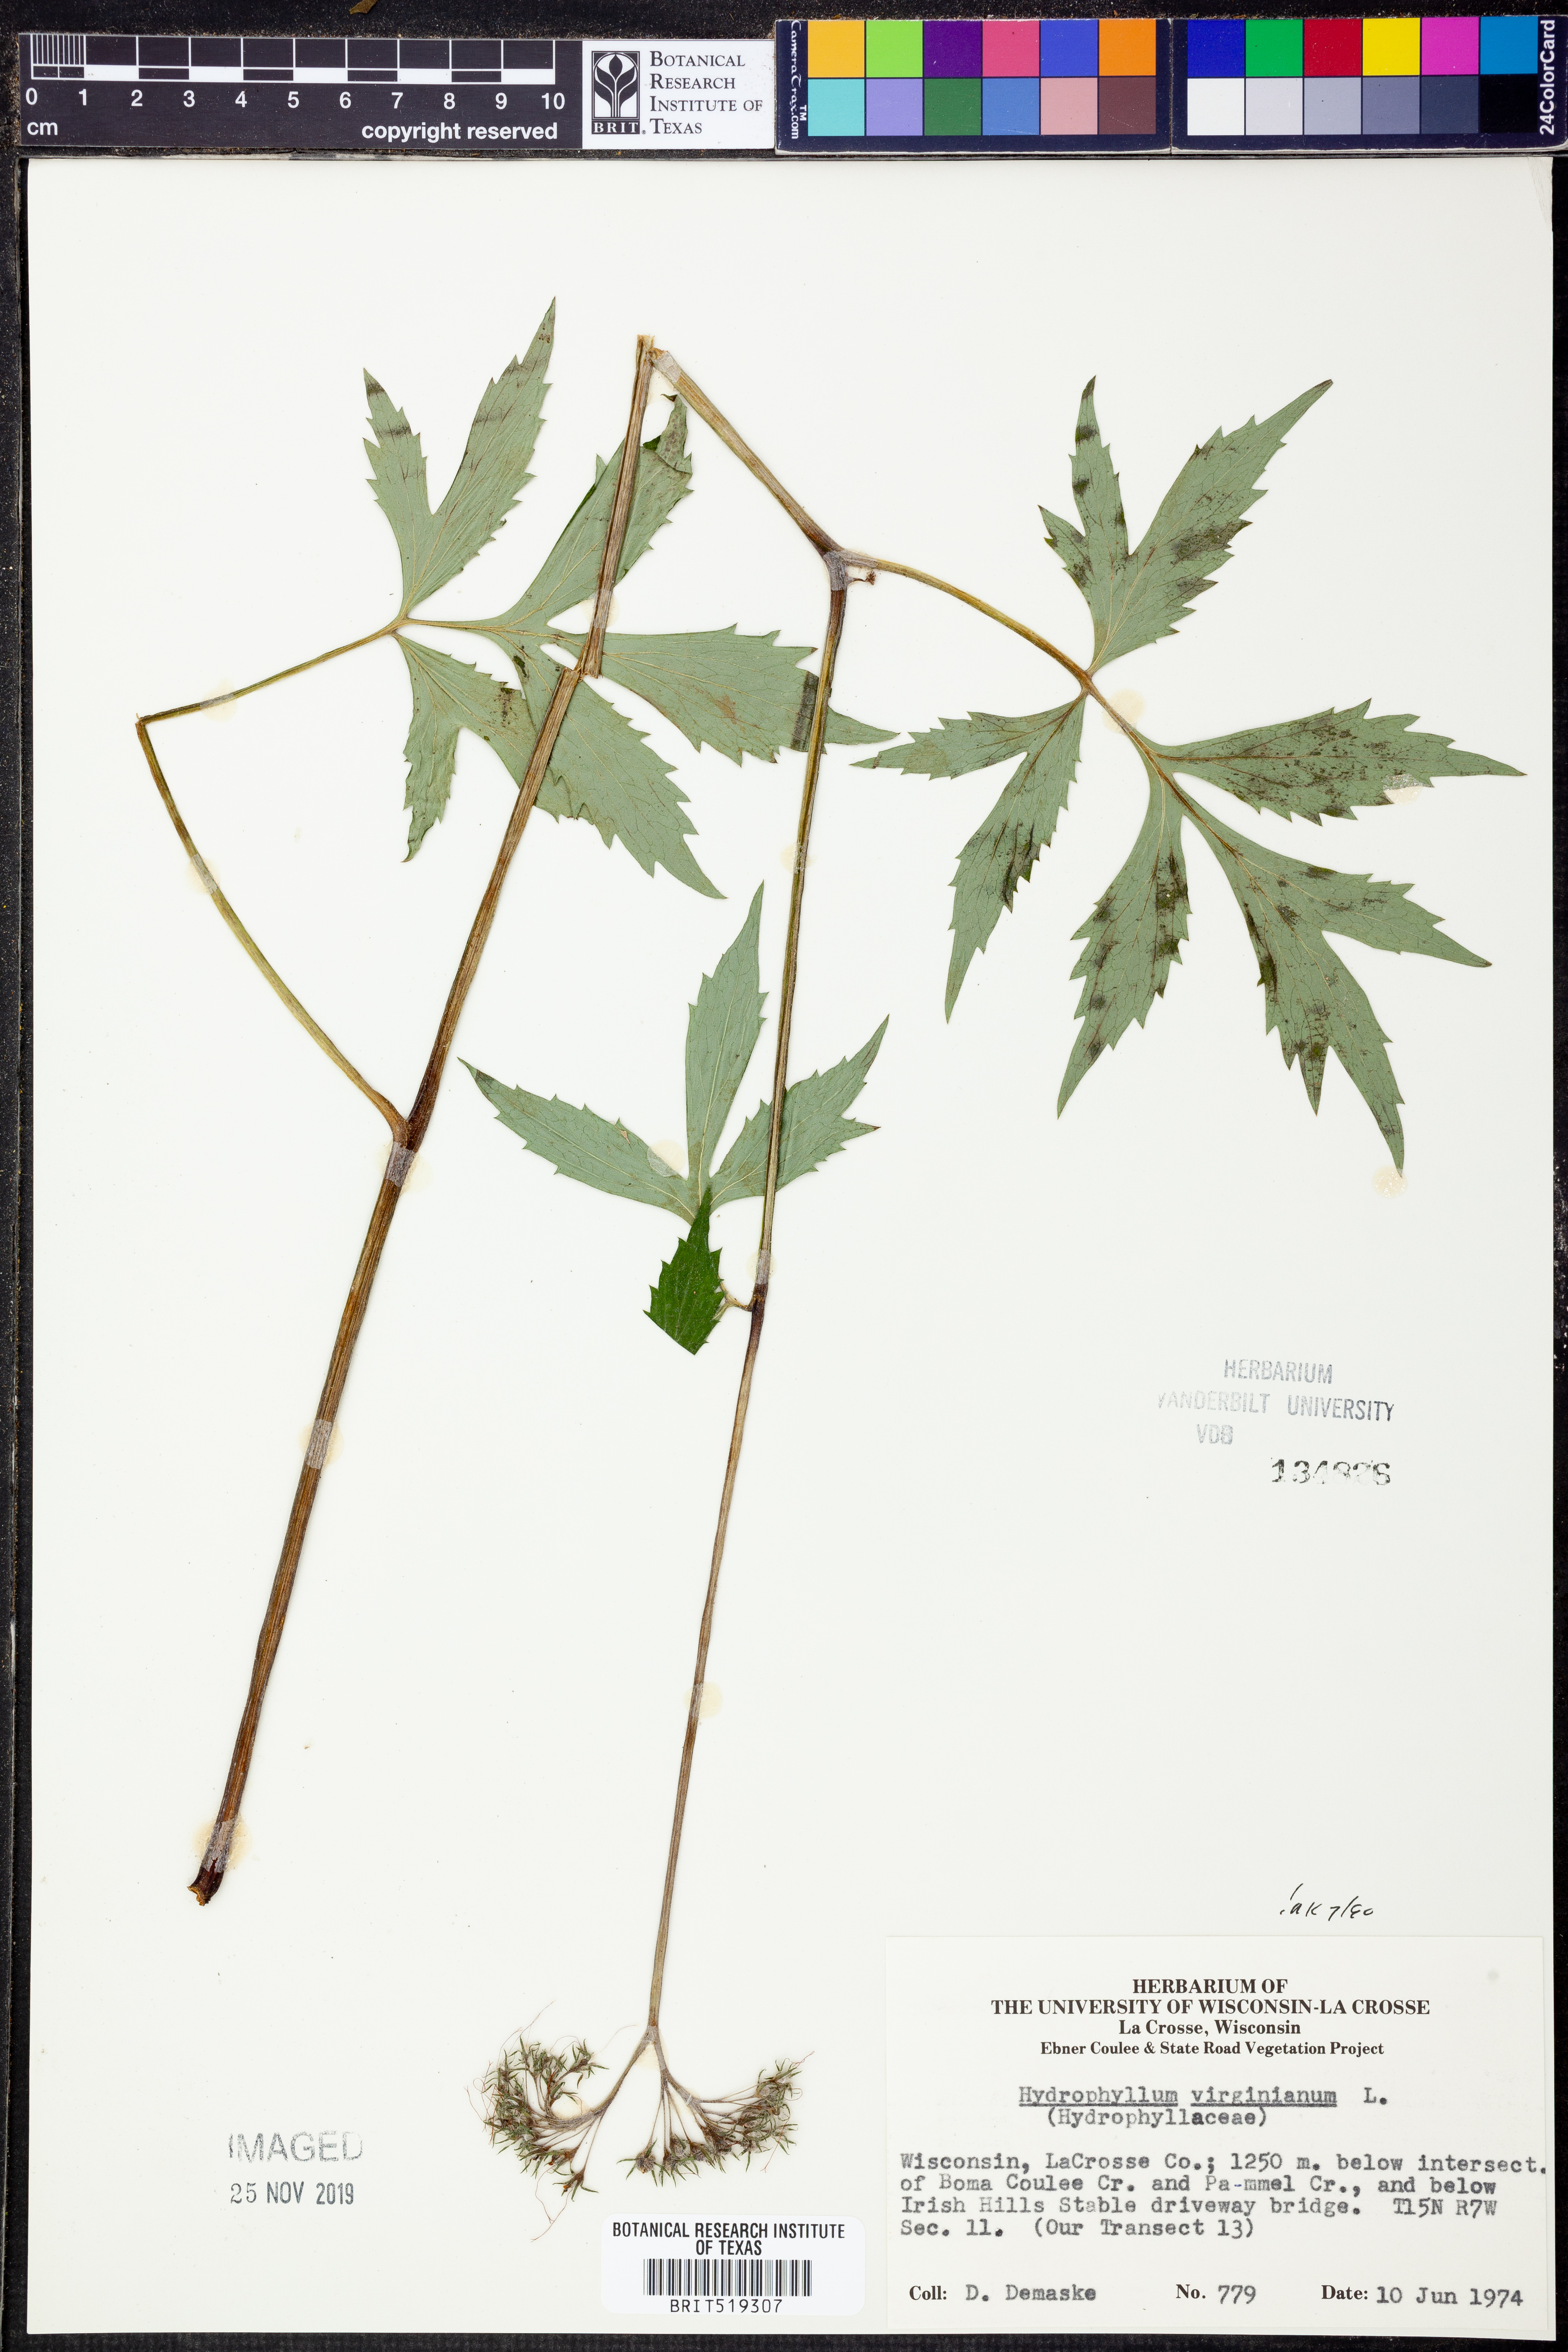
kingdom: Plantae
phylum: Tracheophyta
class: Magnoliopsida
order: Boraginales
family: Hydrophyllaceae
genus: Hydrophyllum
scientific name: Hydrophyllum virginianum
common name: Virginia waterleaf
